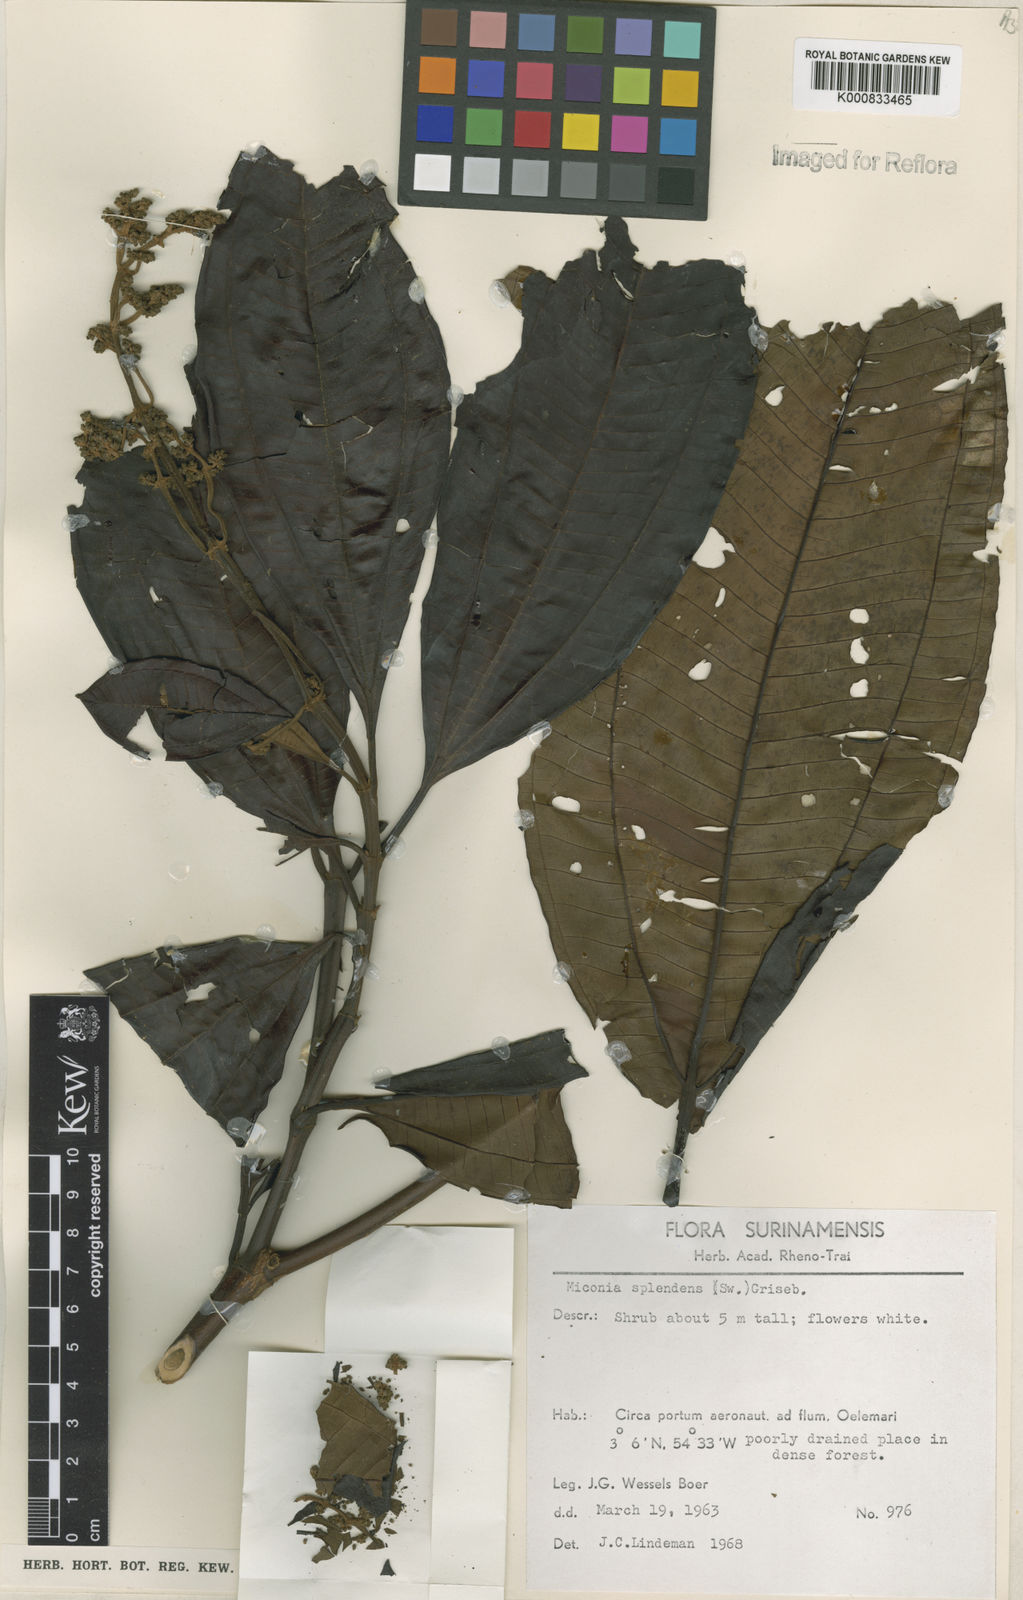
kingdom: Plantae
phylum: Tracheophyta
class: Magnoliopsida
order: Myrtales
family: Melastomataceae
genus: Miconia
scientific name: Miconia splendens
